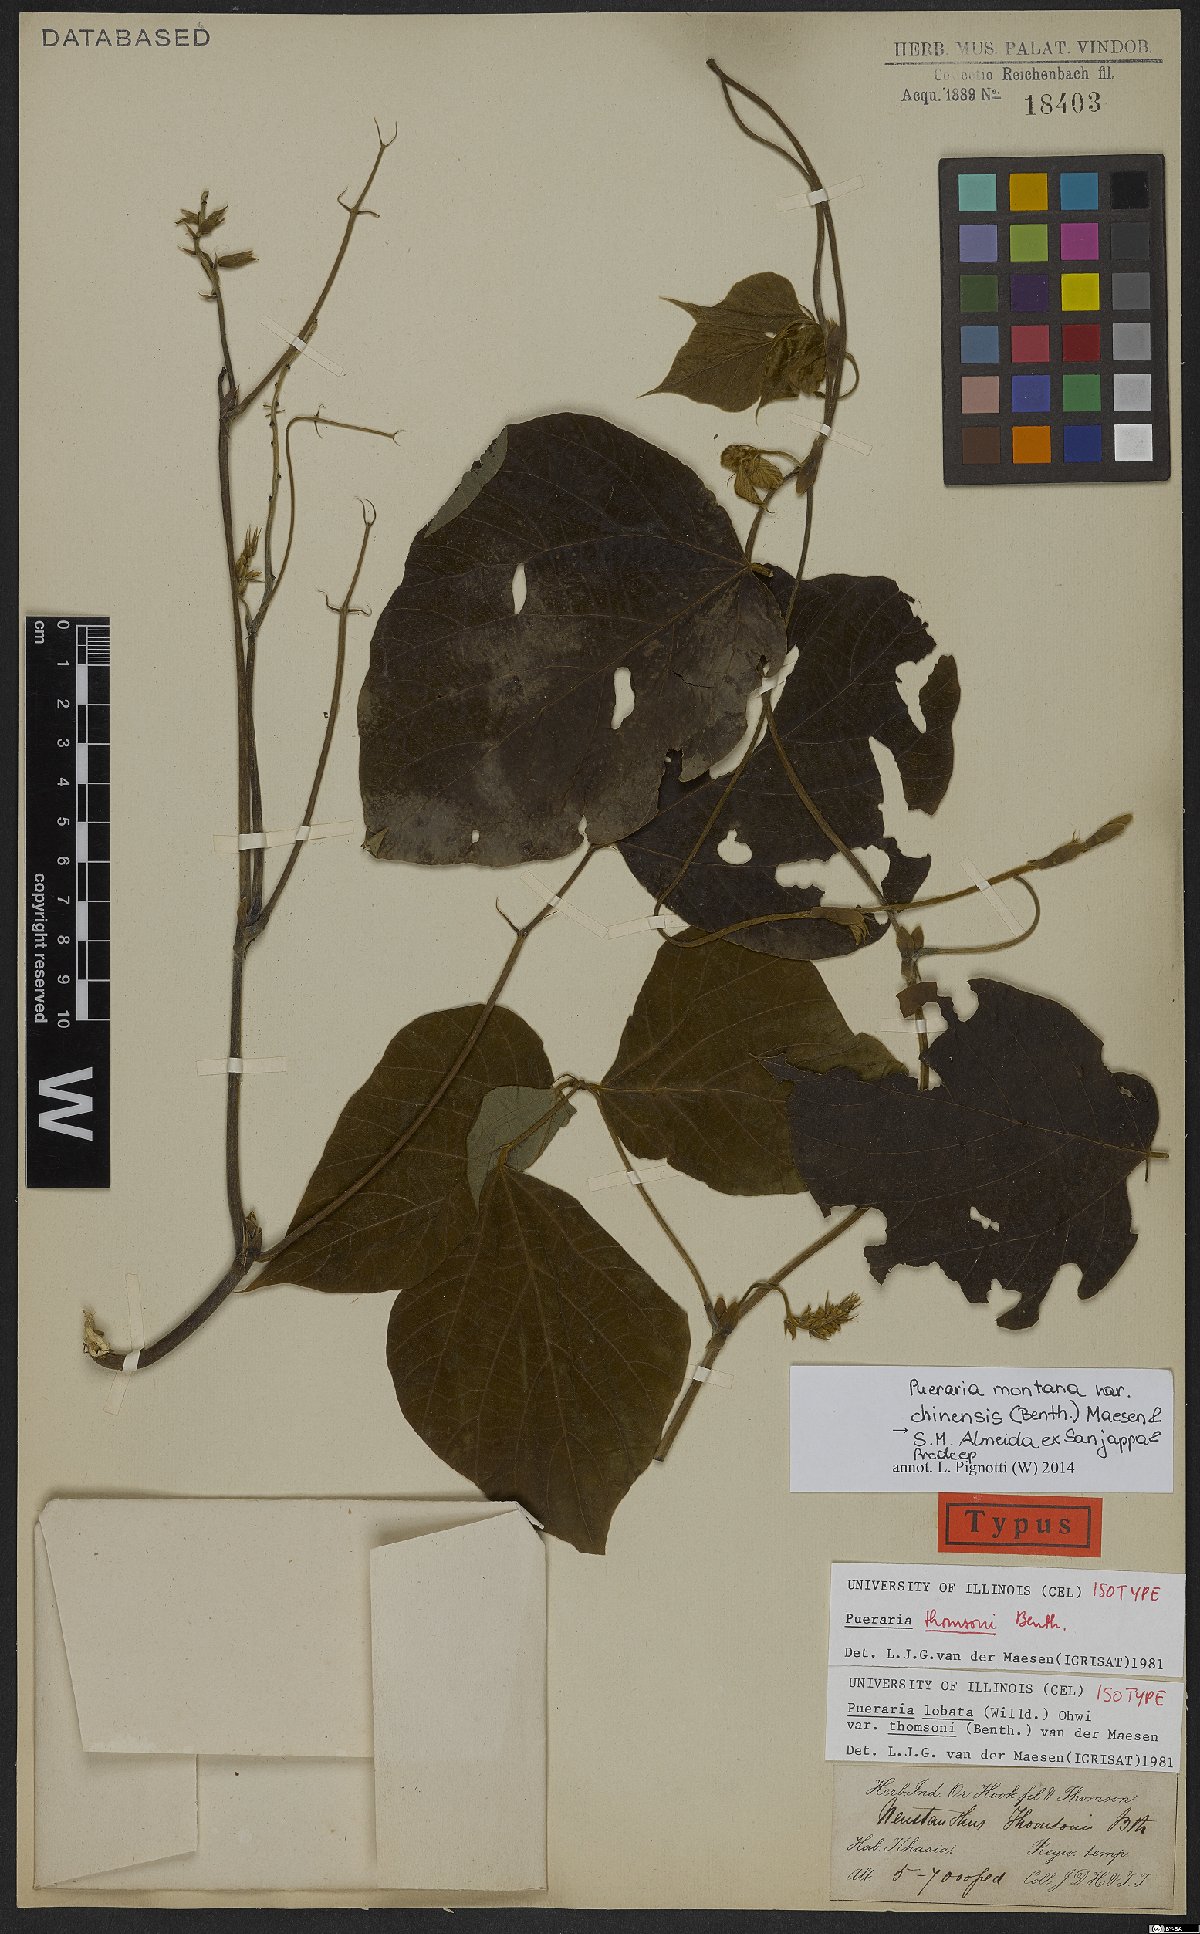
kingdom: Plantae
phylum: Tracheophyta
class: Magnoliopsida
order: Fabales
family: Fabaceae
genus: Pueraria
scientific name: Pueraria montana
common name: Kudzu
